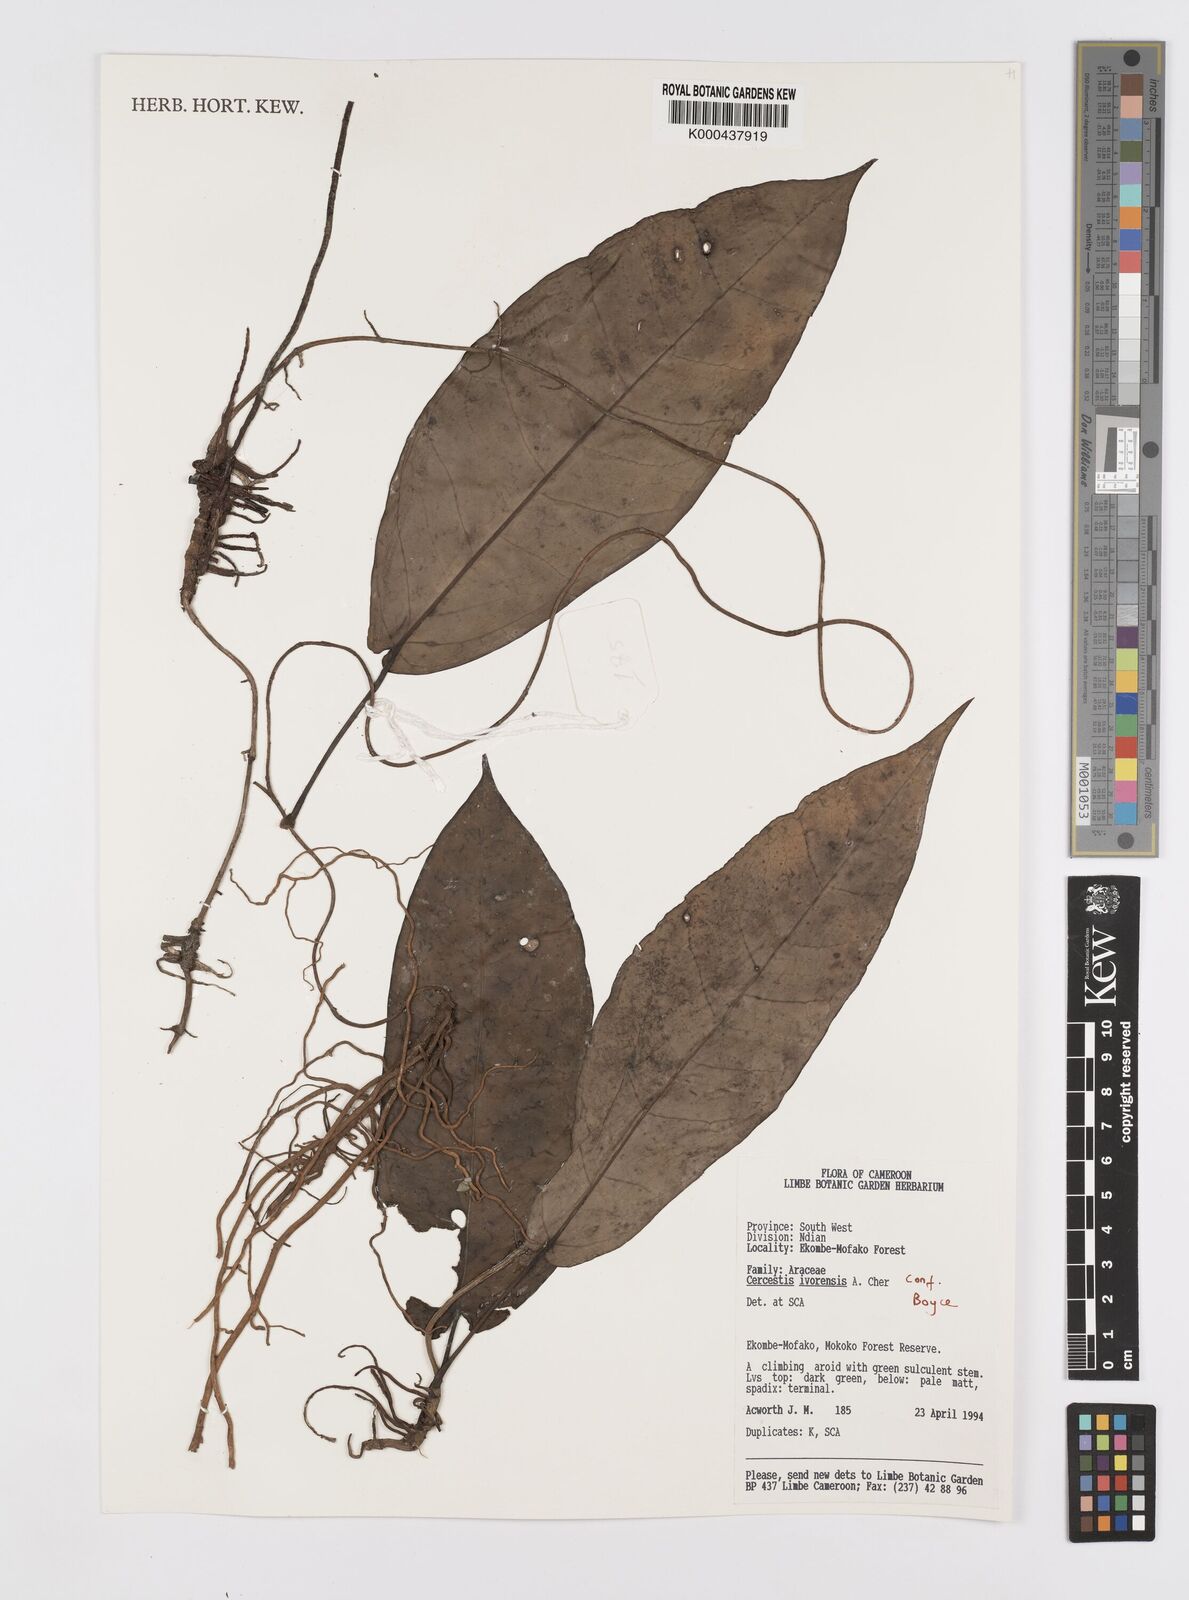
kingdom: Plantae
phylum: Tracheophyta
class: Liliopsida
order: Alismatales
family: Araceae
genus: Cercestis
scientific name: Cercestis ivorensis
